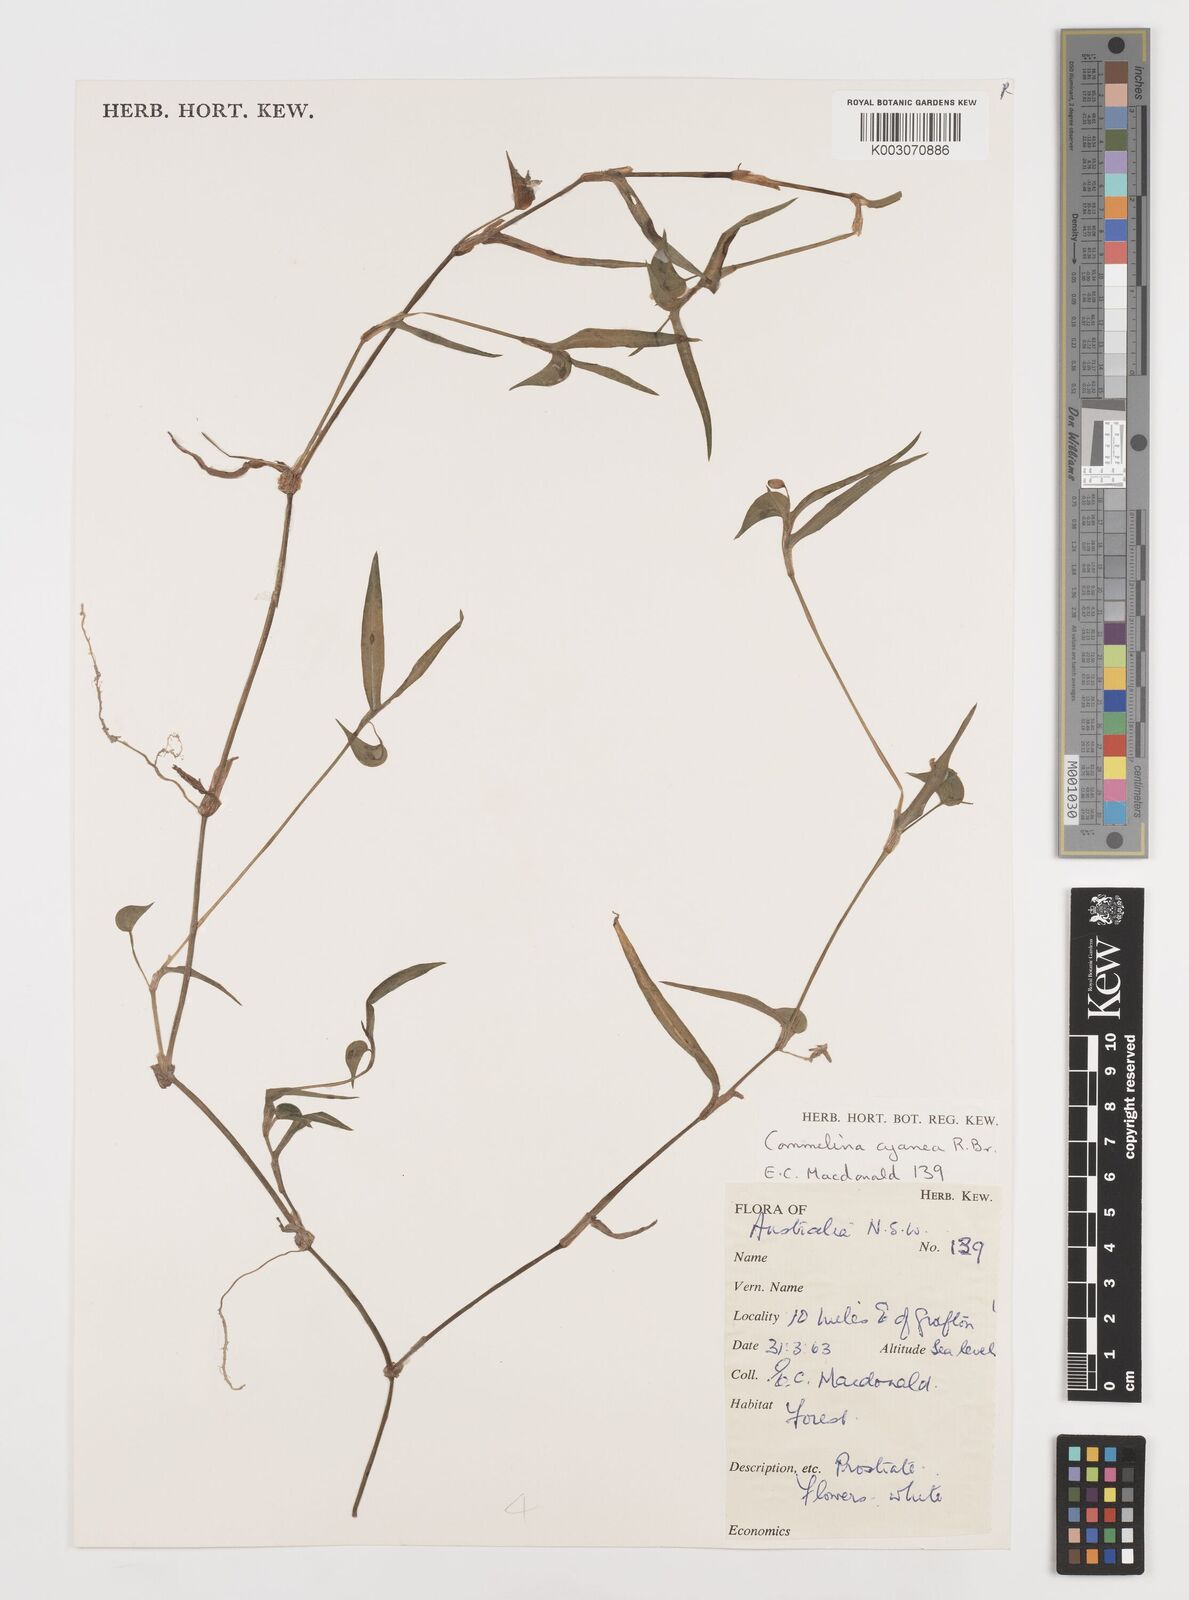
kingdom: Plantae
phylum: Tracheophyta
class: Liliopsida
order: Commelinales
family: Commelinaceae
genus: Commelina
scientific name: Commelina cyanea
